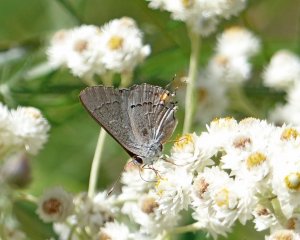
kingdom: Animalia
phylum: Arthropoda
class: Insecta
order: Lepidoptera
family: Lycaenidae
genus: Strymon
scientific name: Strymon melinus
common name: Gray Hairstreak
